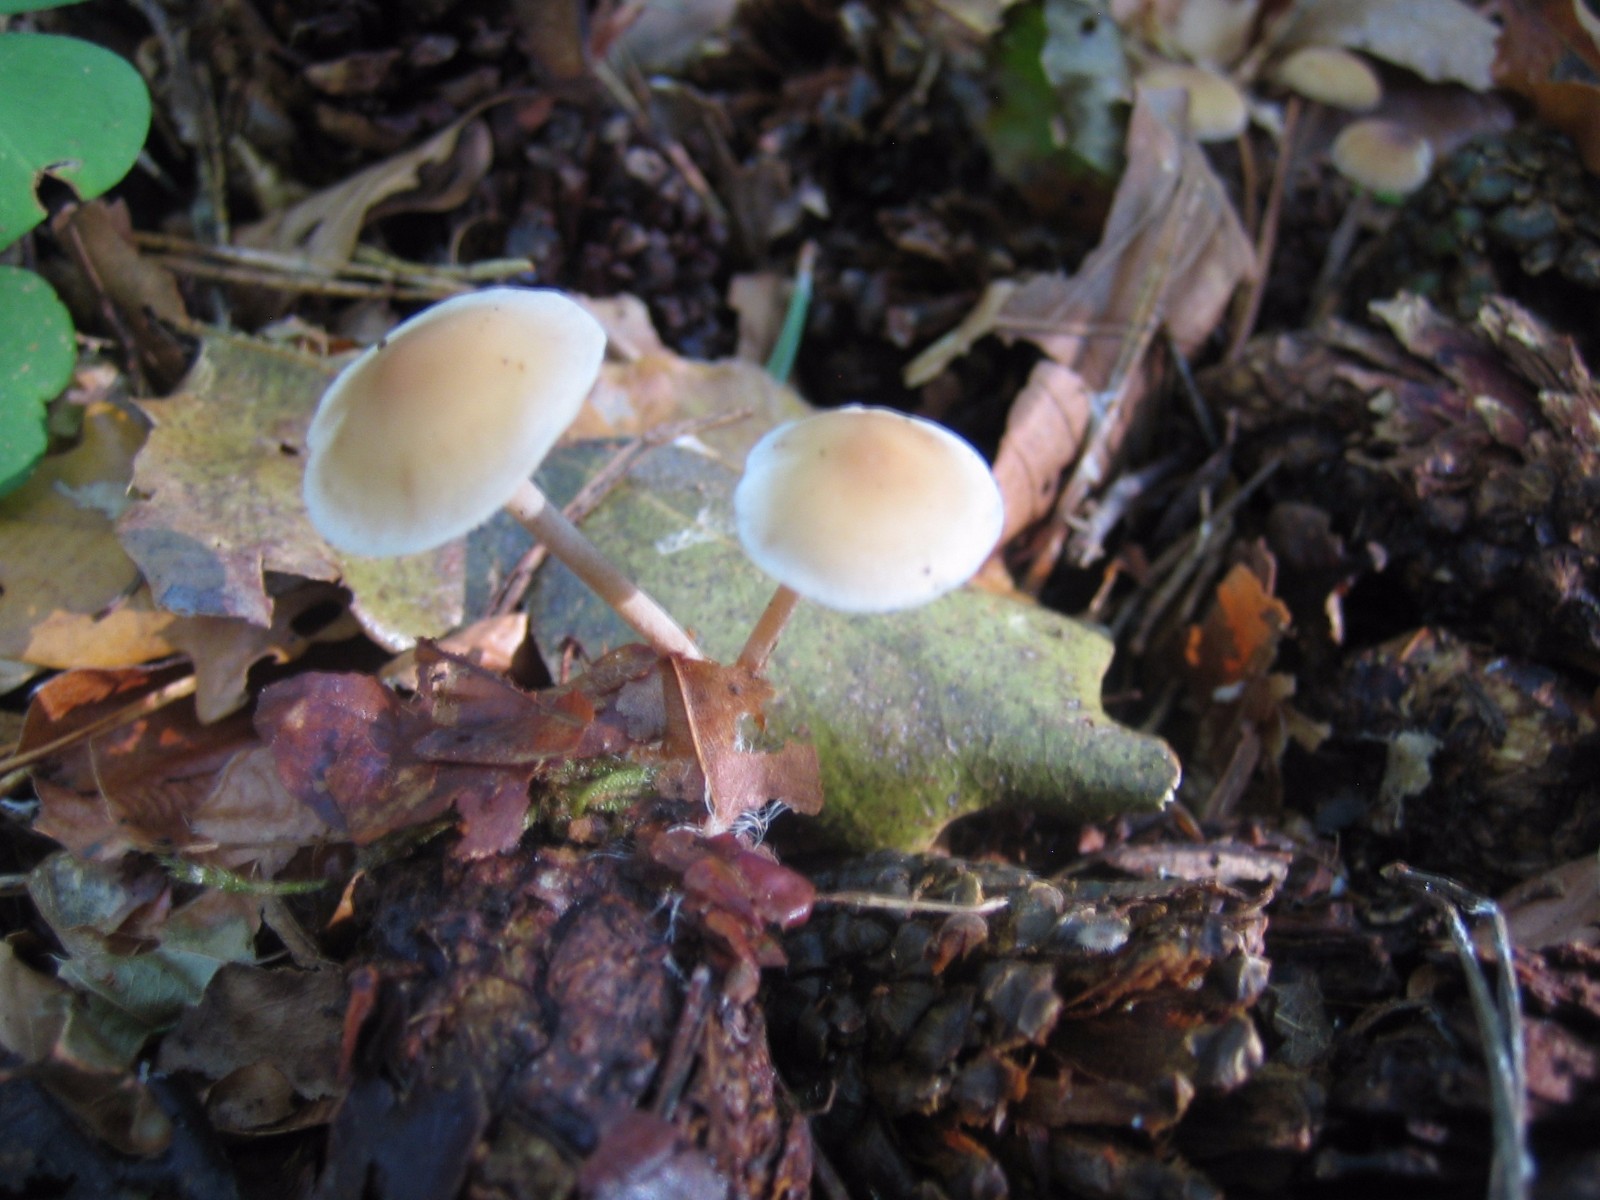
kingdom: Fungi
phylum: Basidiomycota
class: Agaricomycetes
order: Agaricales
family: Marasmiaceae
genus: Baeospora
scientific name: Baeospora myosura
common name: koglebruskhat
